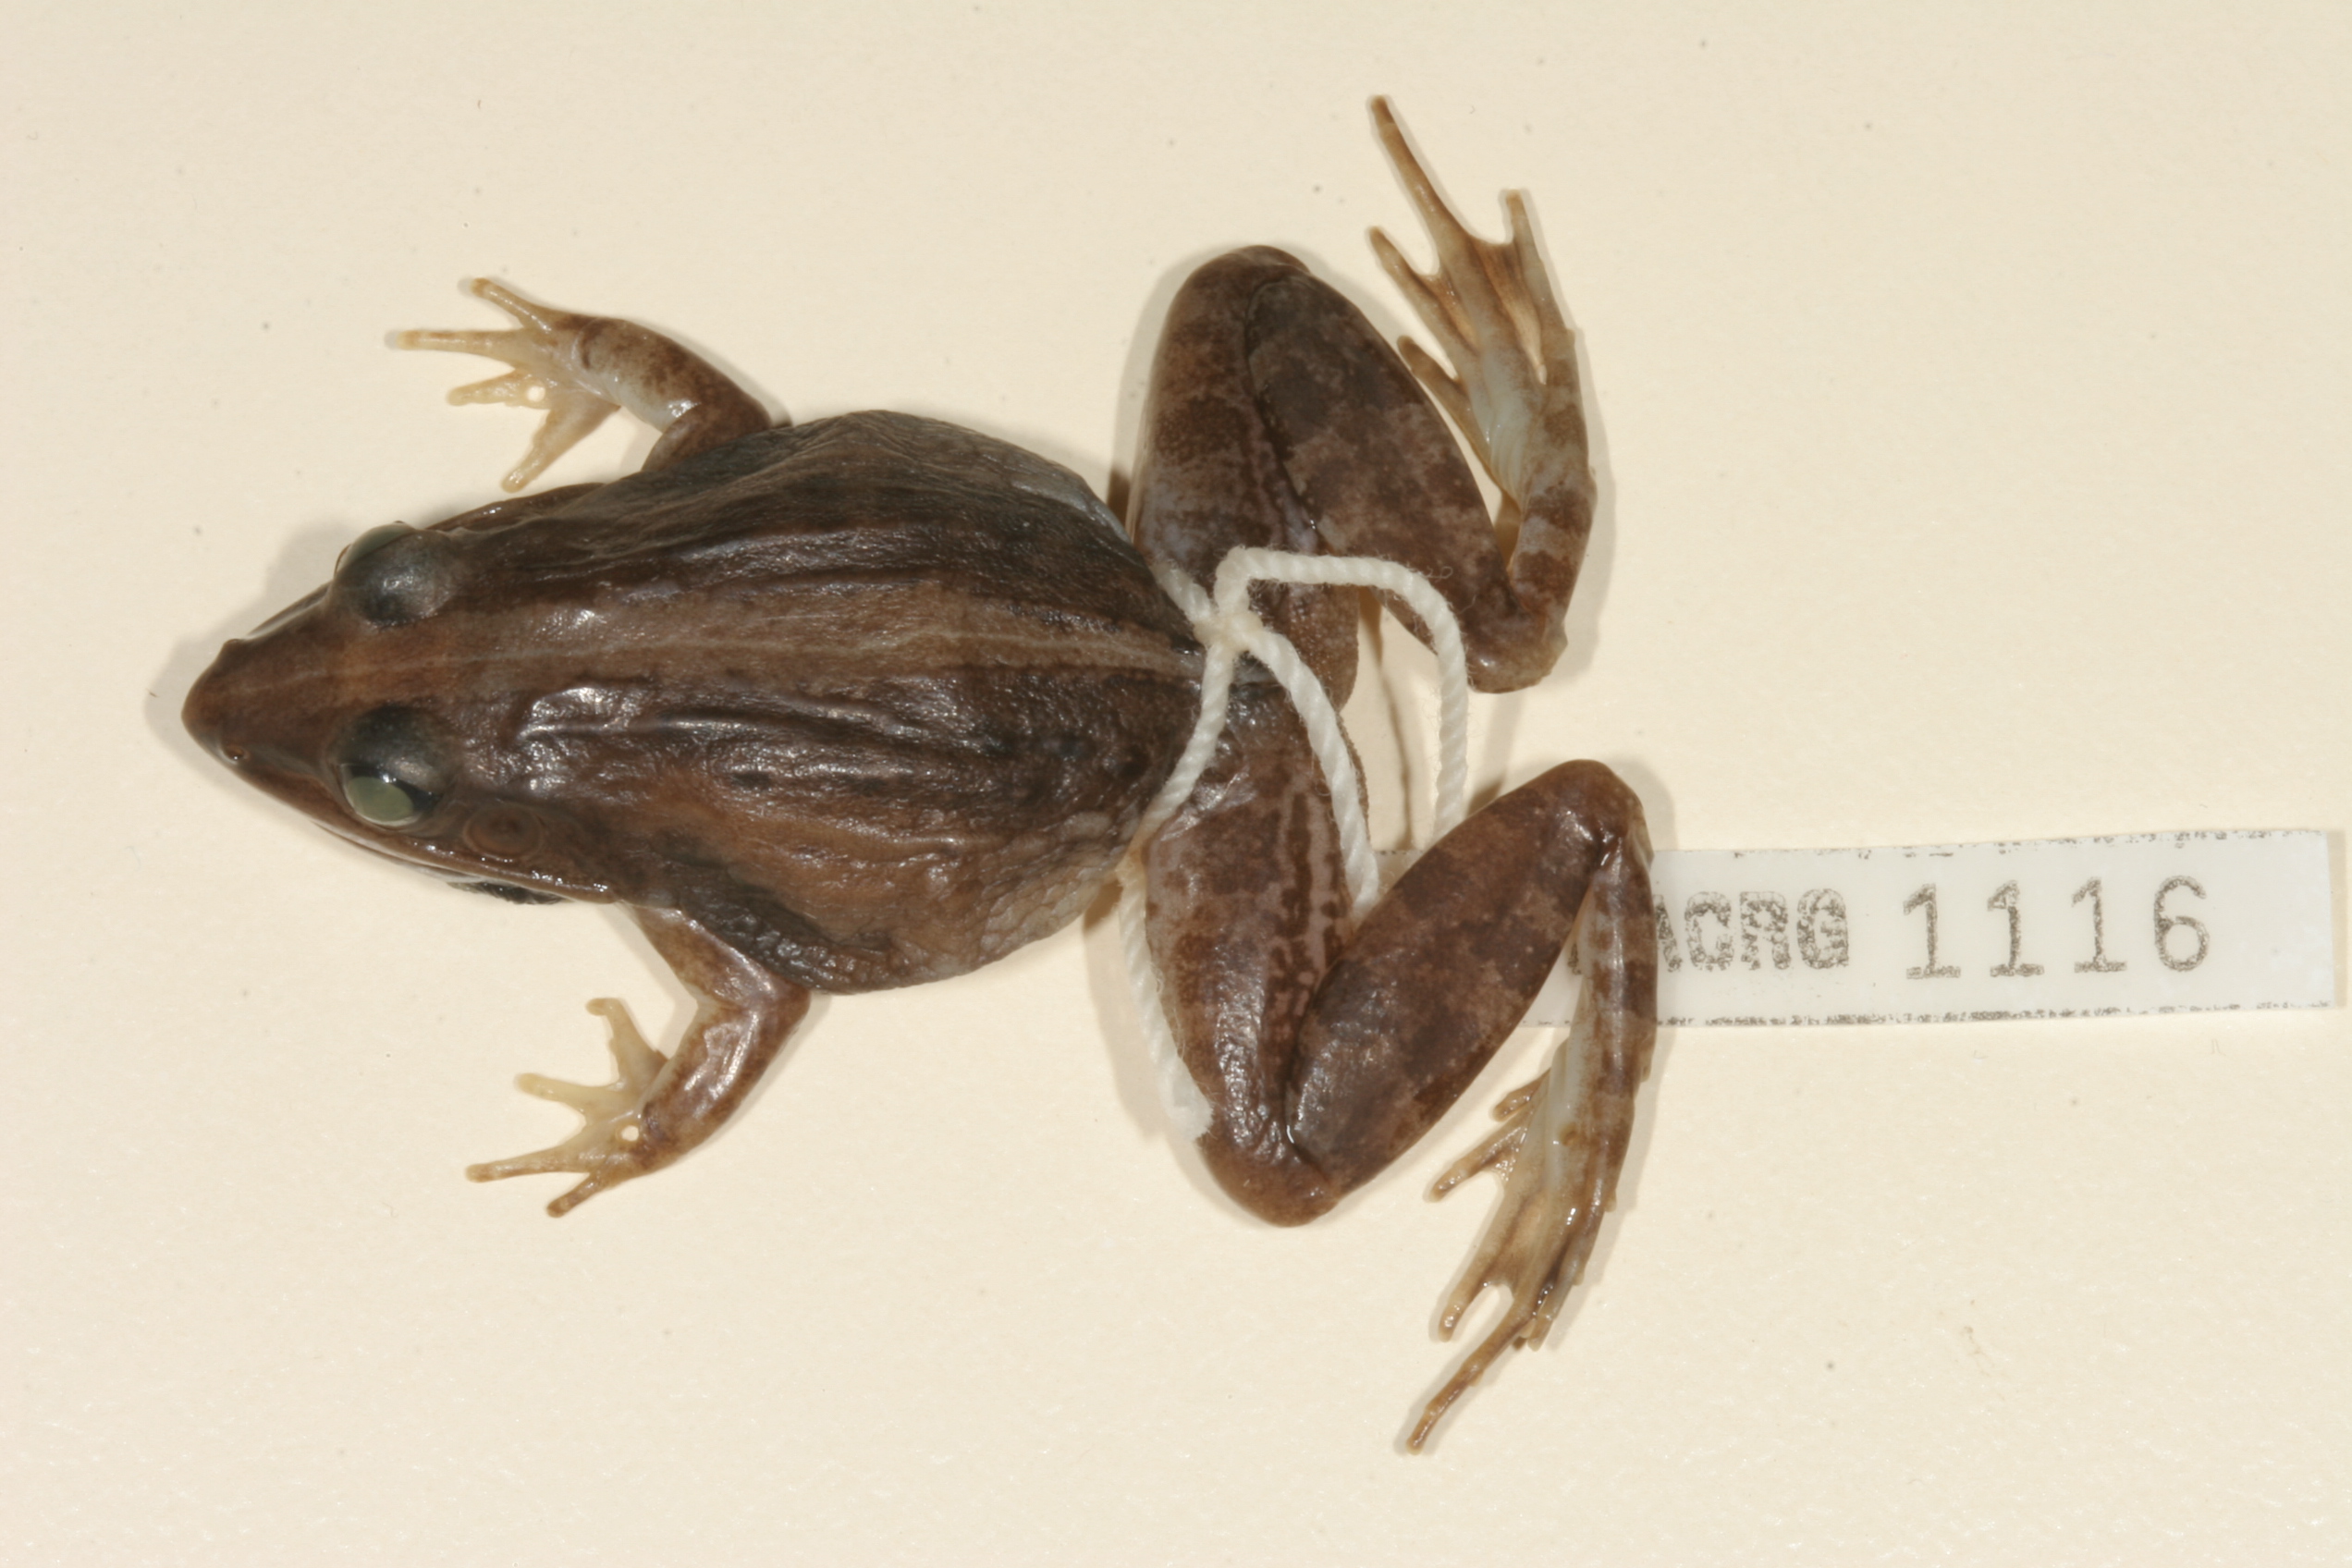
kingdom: Animalia
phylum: Chordata
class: Amphibia
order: Anura
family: Ptychadenidae
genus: Ptychadena
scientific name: Ptychadena mossambica
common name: Mozambique ridged frog
